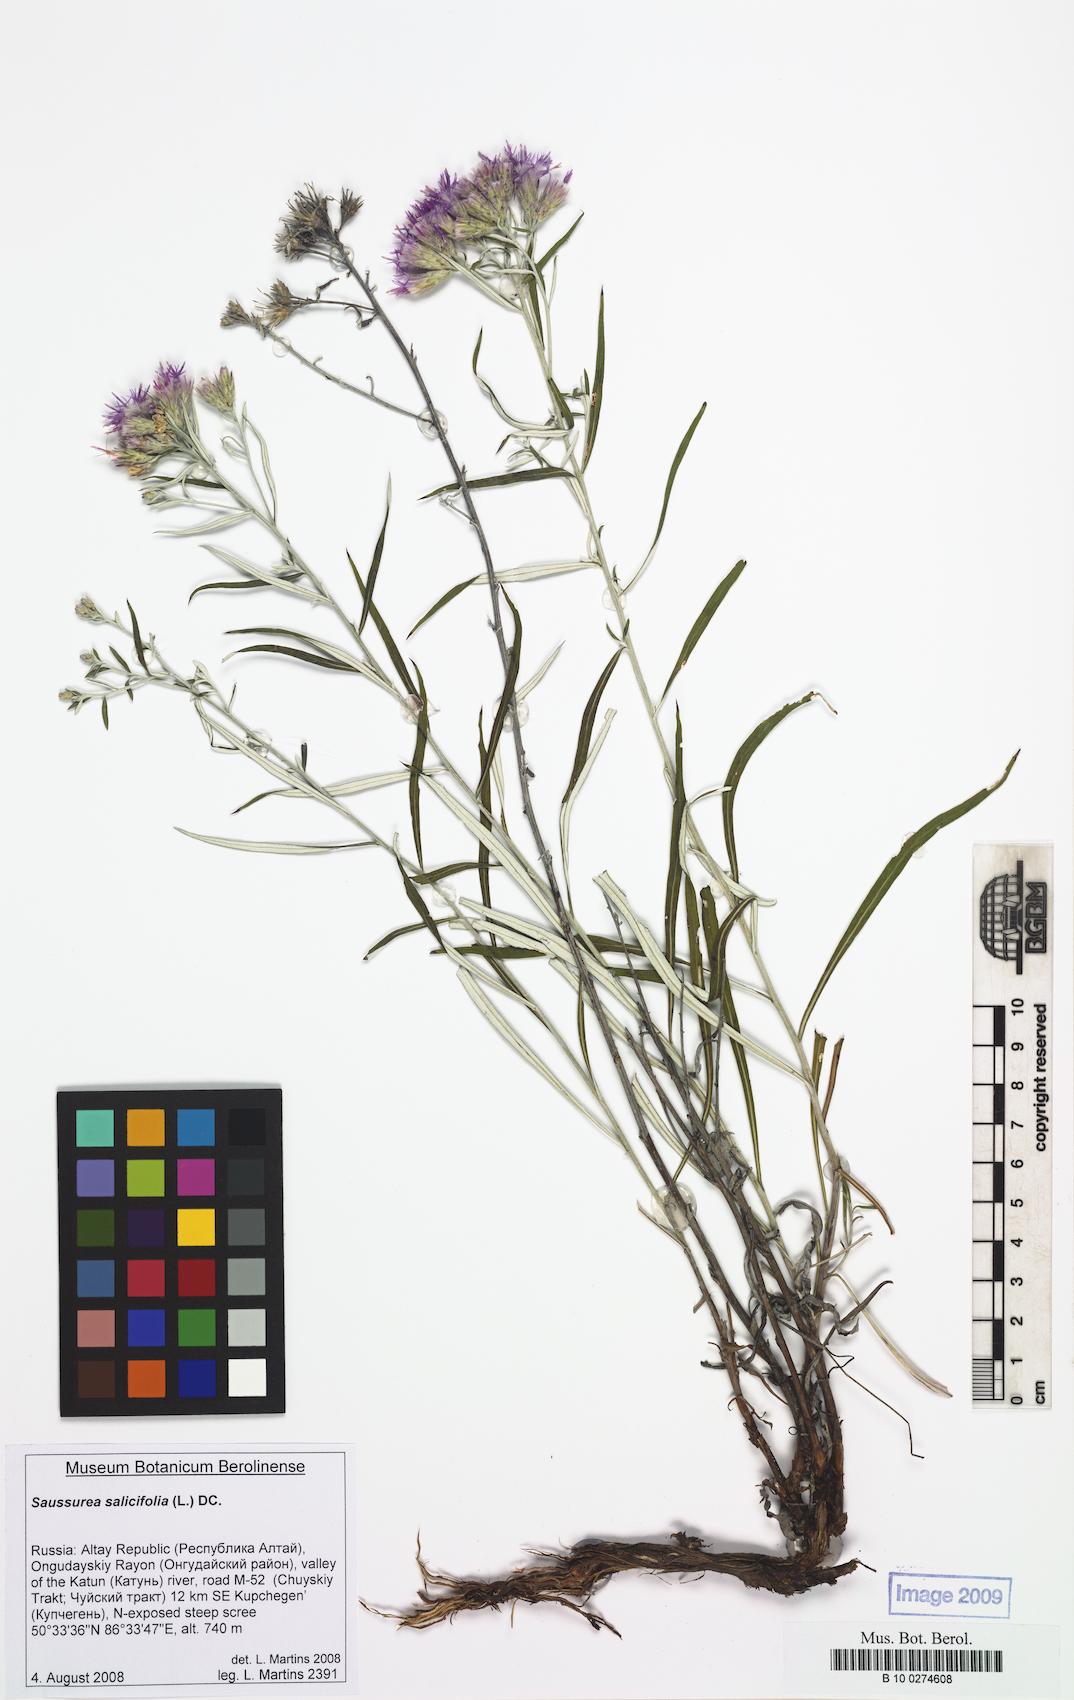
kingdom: Plantae
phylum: Tracheophyta
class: Magnoliopsida
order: Asterales
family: Asteraceae
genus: Saussurea
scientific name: Saussurea salicifolia
